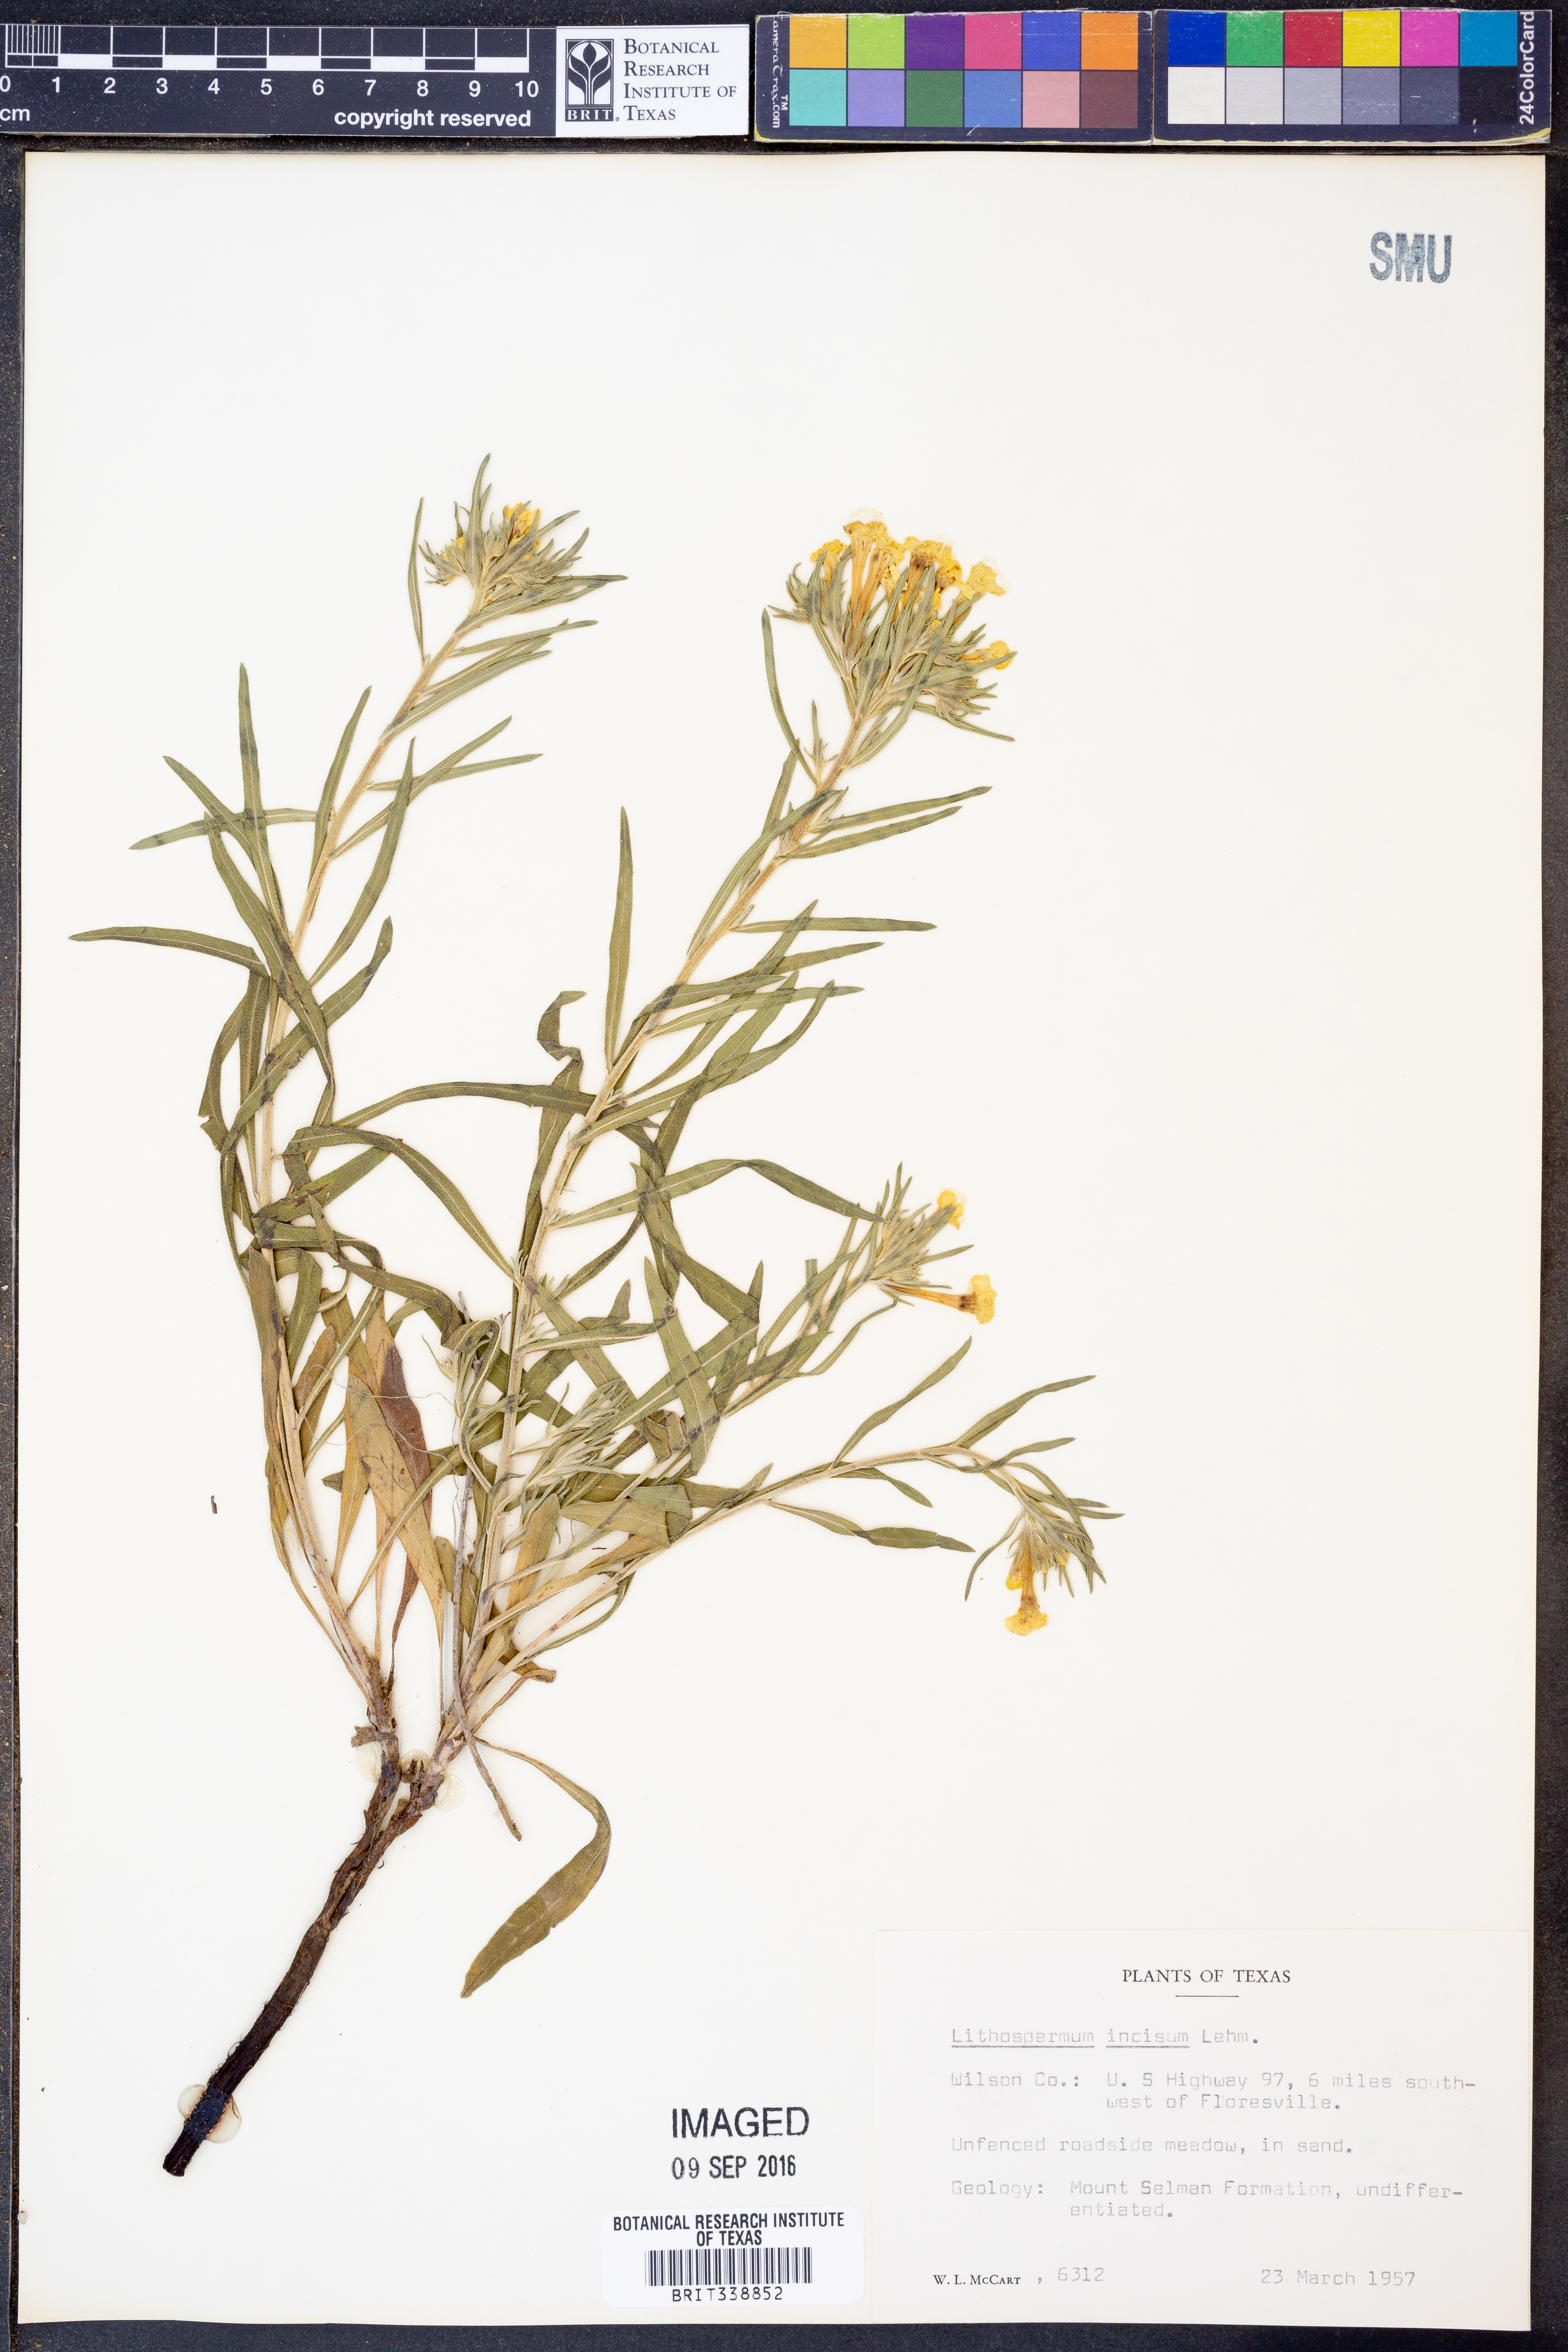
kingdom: Plantae
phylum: Tracheophyta
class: Magnoliopsida
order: Boraginales
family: Boraginaceae
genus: Lithospermum
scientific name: Lithospermum incisum
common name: Fringed gromwell
